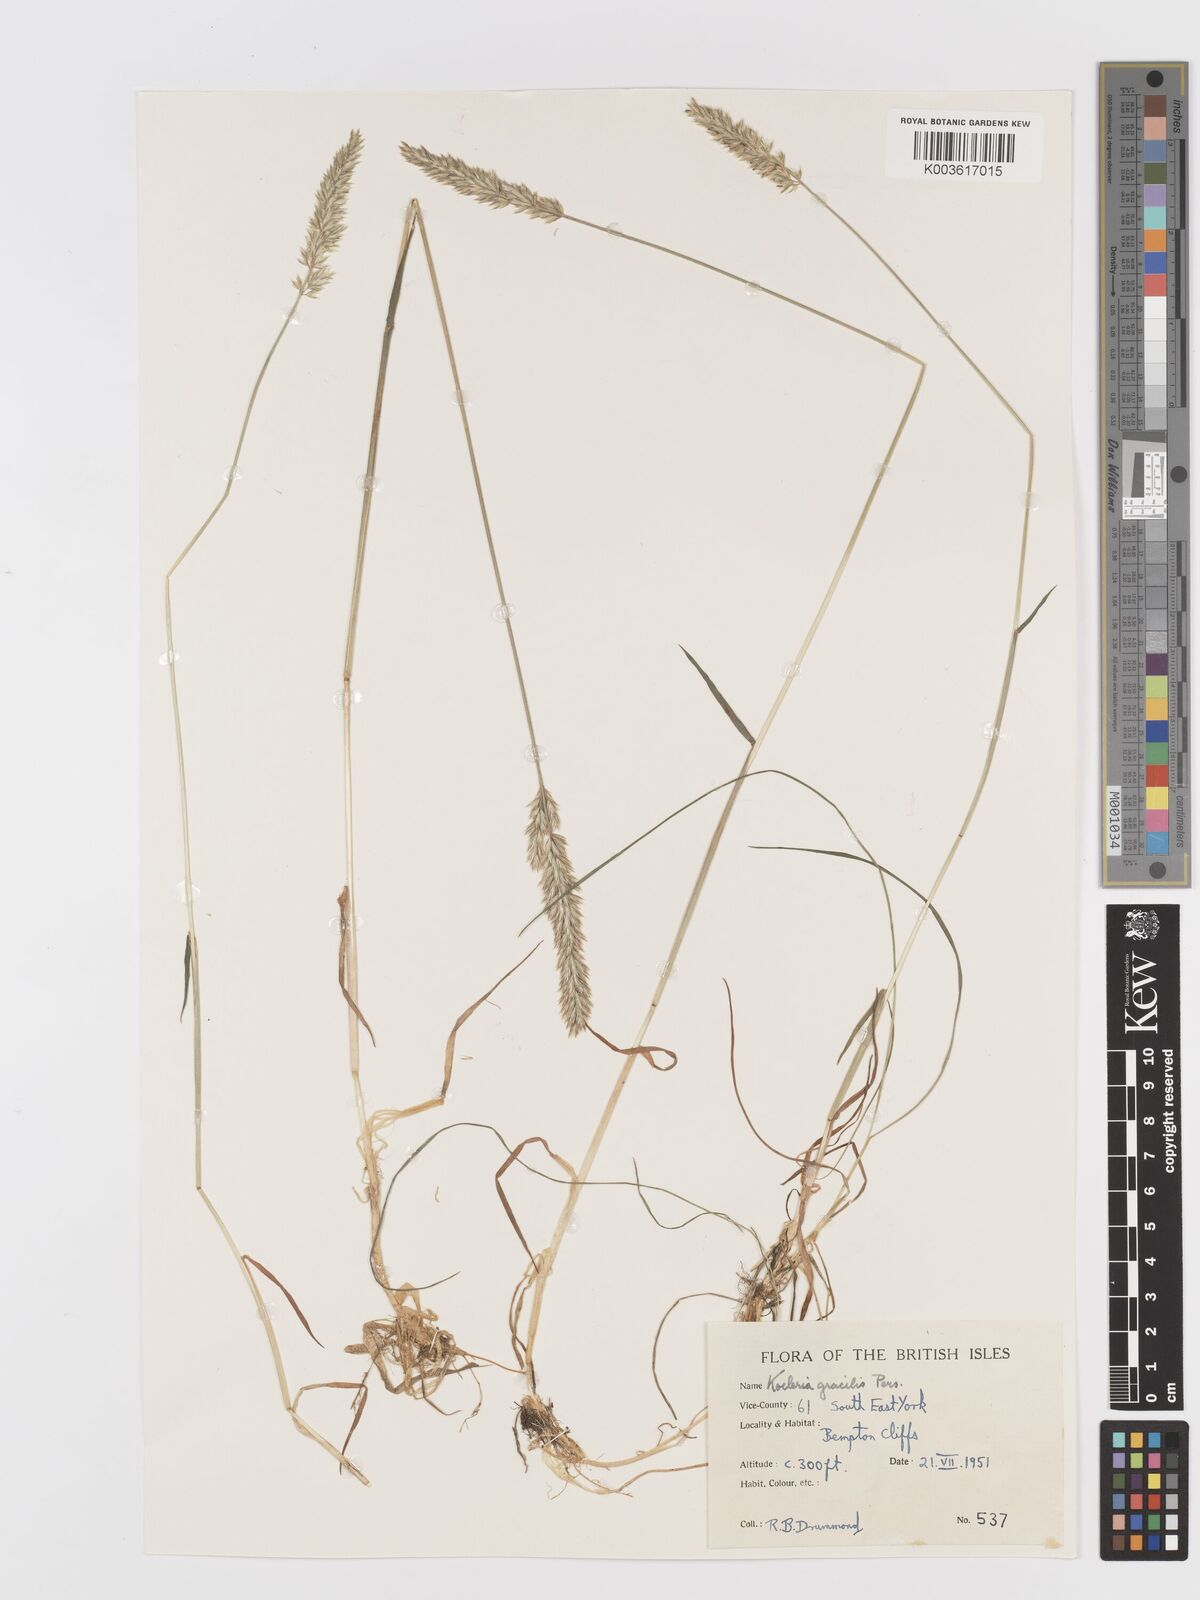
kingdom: Plantae
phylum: Tracheophyta
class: Liliopsida
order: Poales
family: Poaceae
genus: Koeleria
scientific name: Koeleria nitidula
